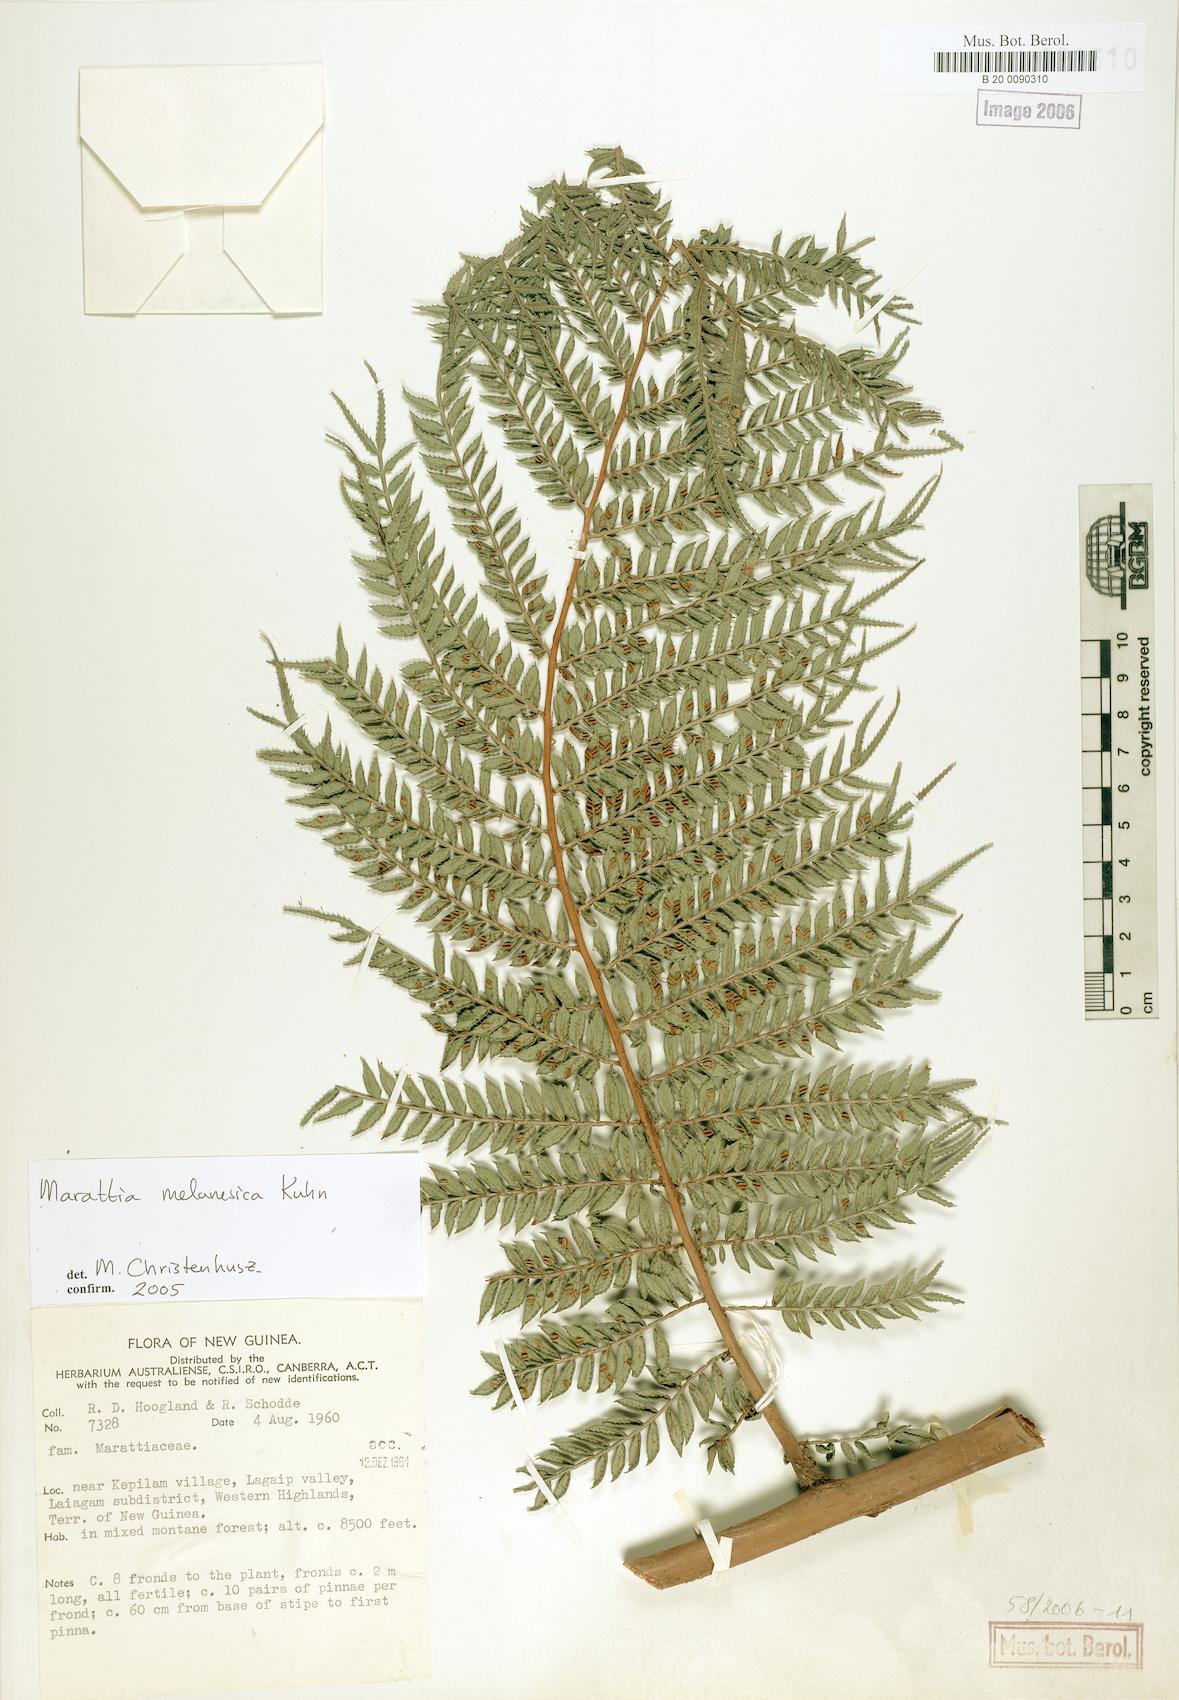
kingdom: Plantae
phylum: Tracheophyta
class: Polypodiopsida
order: Marattiales
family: Marattiaceae
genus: Ptisana
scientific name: Ptisana melanesica
